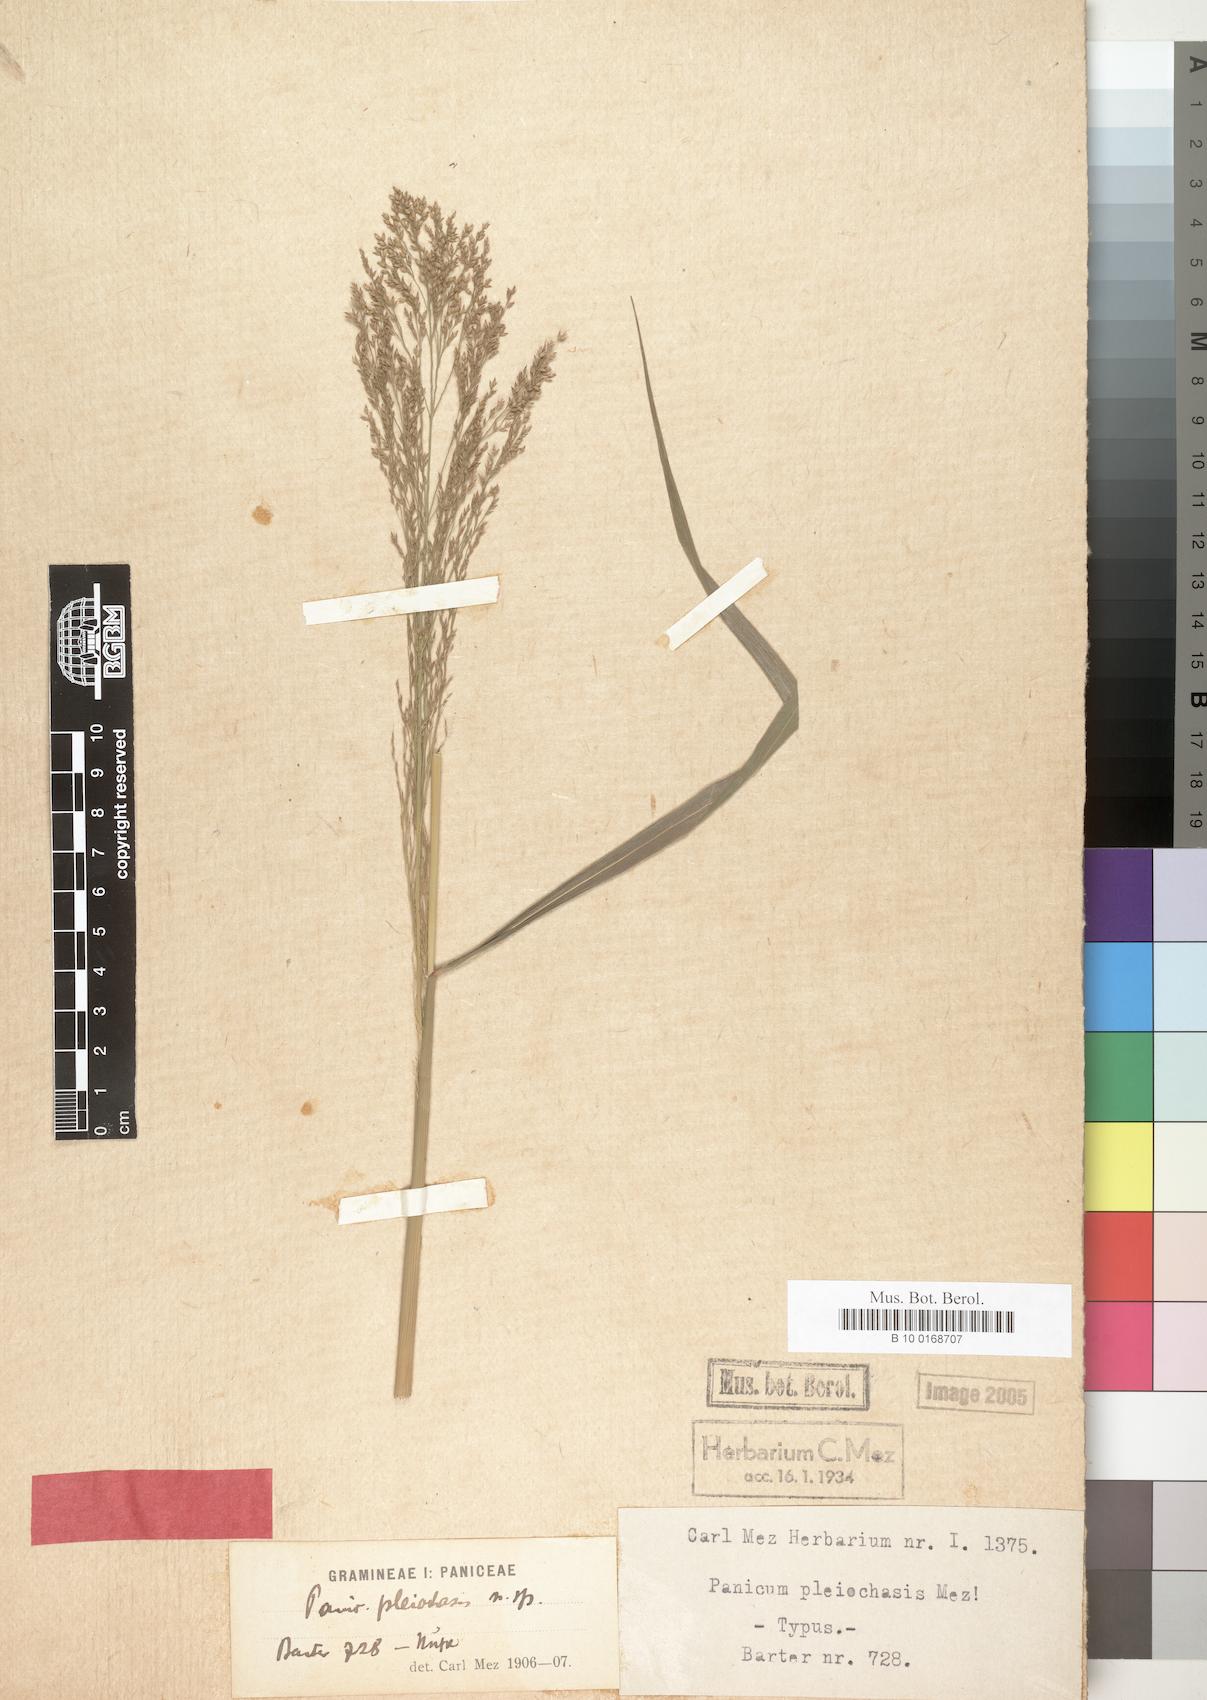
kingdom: Plantae
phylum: Tracheophyta
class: Liliopsida
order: Poales
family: Poaceae
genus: Panicum
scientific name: Panicum
